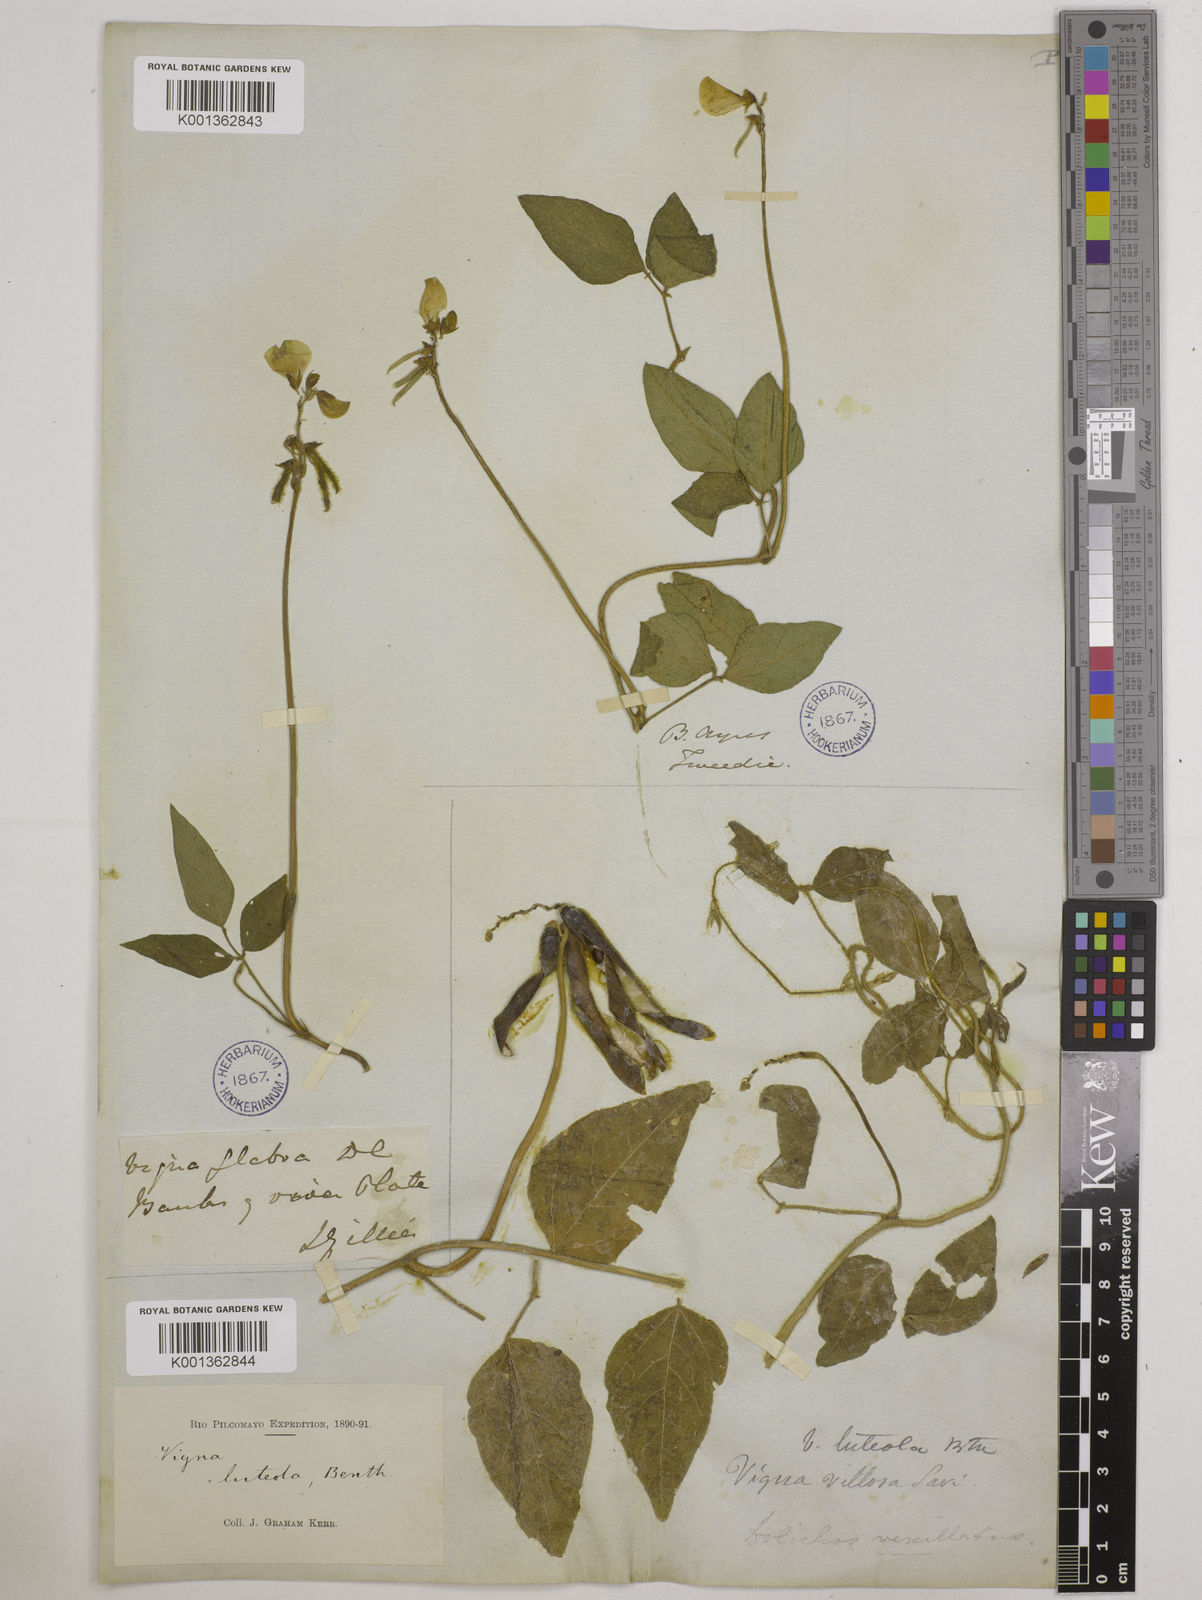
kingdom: Plantae
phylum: Tracheophyta
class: Magnoliopsida
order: Fabales
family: Fabaceae
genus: Vigna
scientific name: Vigna luteola
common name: Hairypod cowpea
